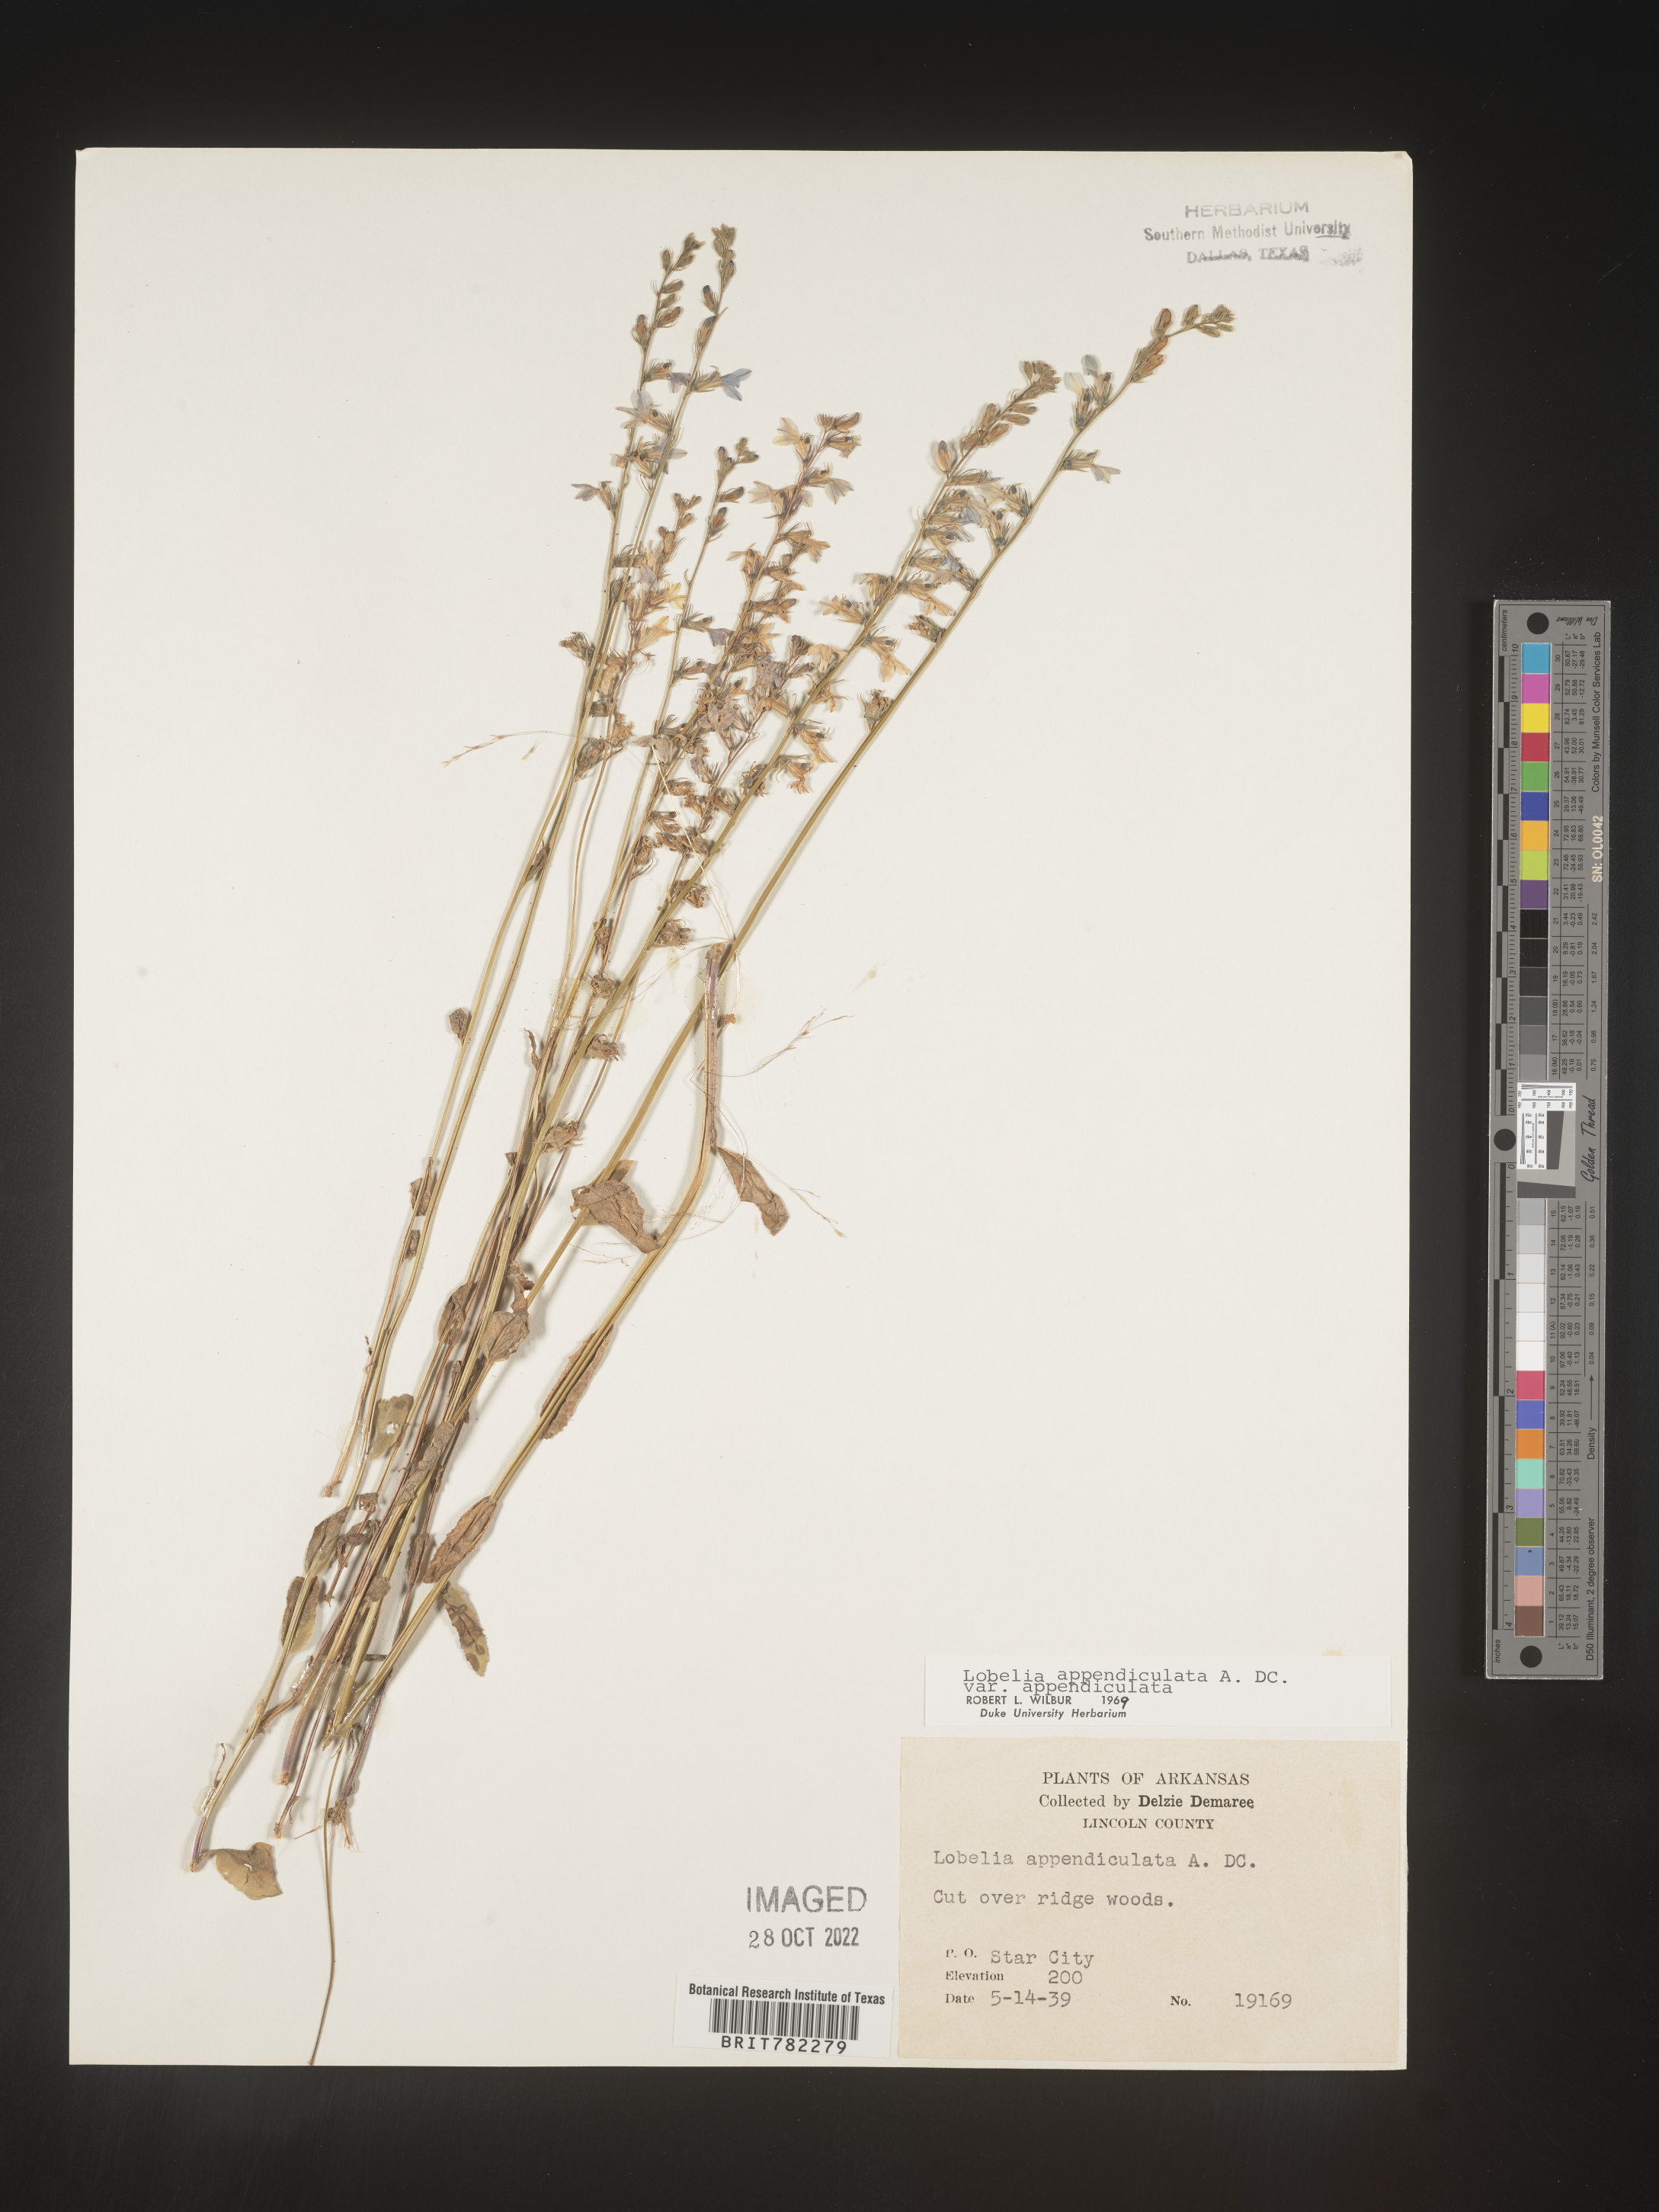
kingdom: Plantae
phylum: Tracheophyta
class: Magnoliopsida
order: Asterales
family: Campanulaceae
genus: Lobelia
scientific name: Lobelia appendiculata
